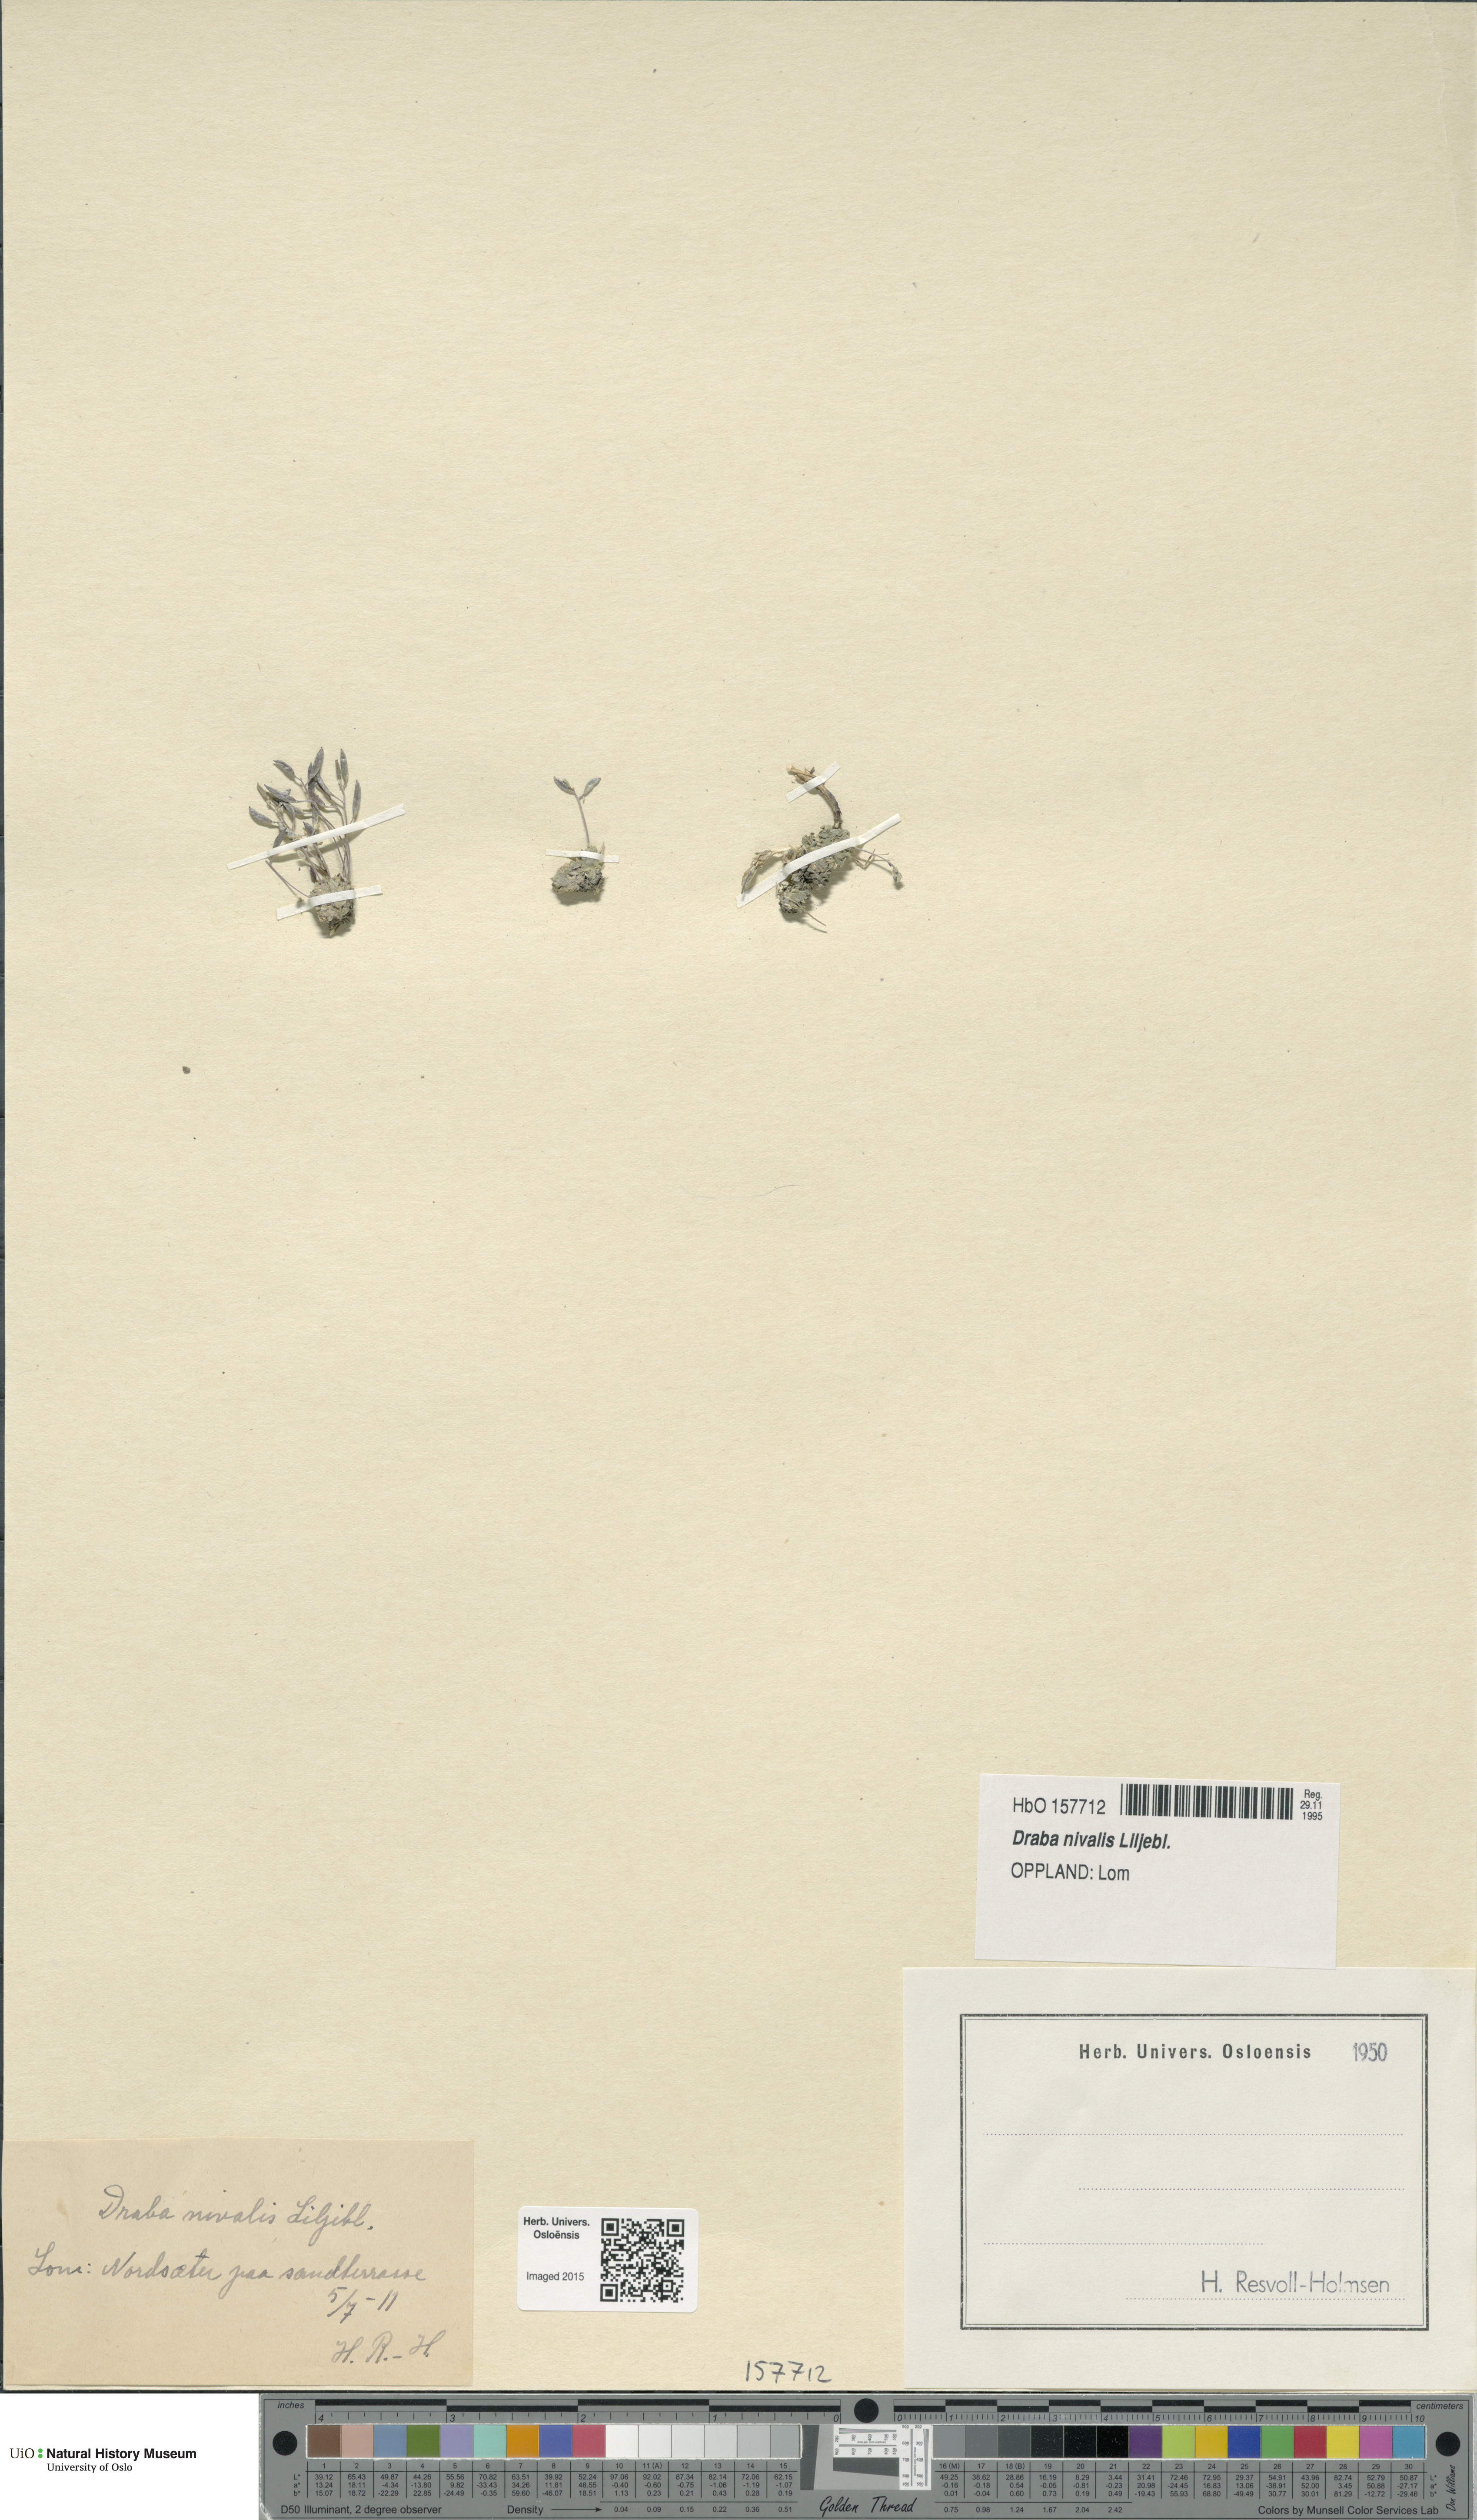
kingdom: Plantae
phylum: Tracheophyta
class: Magnoliopsida
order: Brassicales
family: Brassicaceae
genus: Draba
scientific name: Draba nivalis
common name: Snow draba
